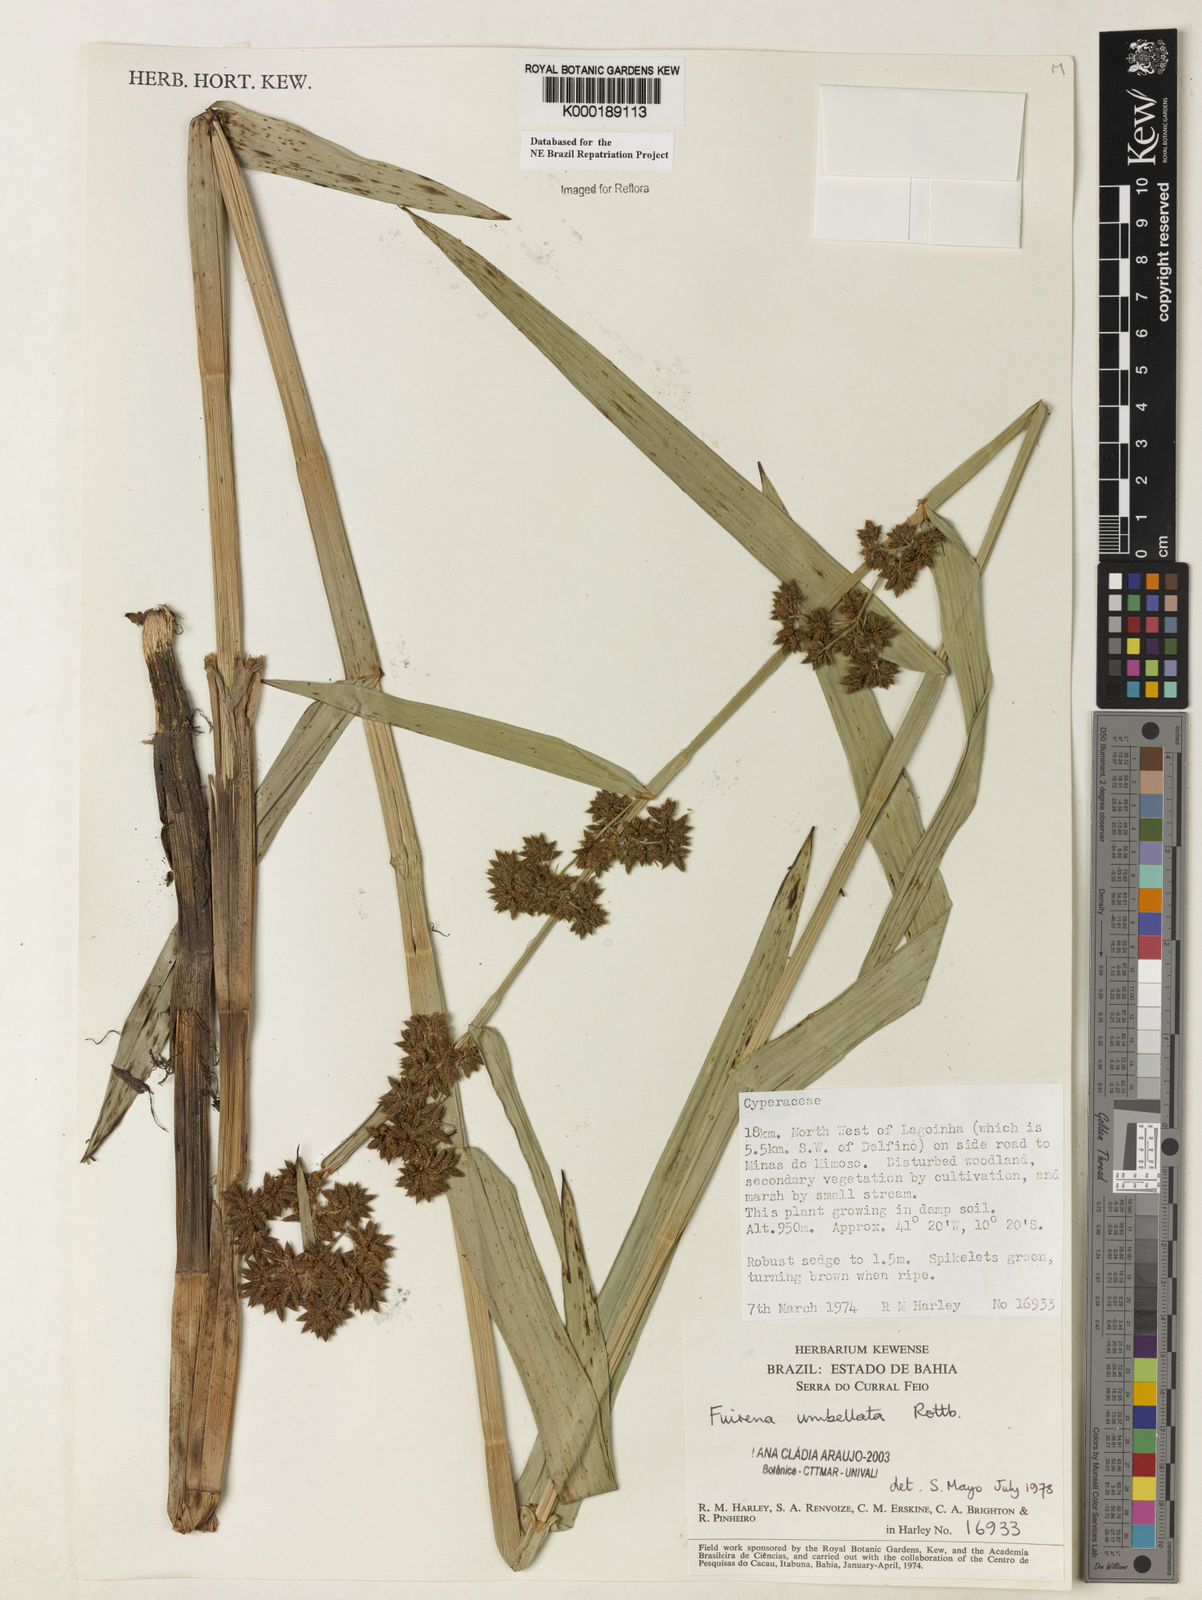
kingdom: Plantae
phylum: Tracheophyta
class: Liliopsida
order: Poales
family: Cyperaceae
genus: Fuirena
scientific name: Fuirena umbellata
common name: Yefen
